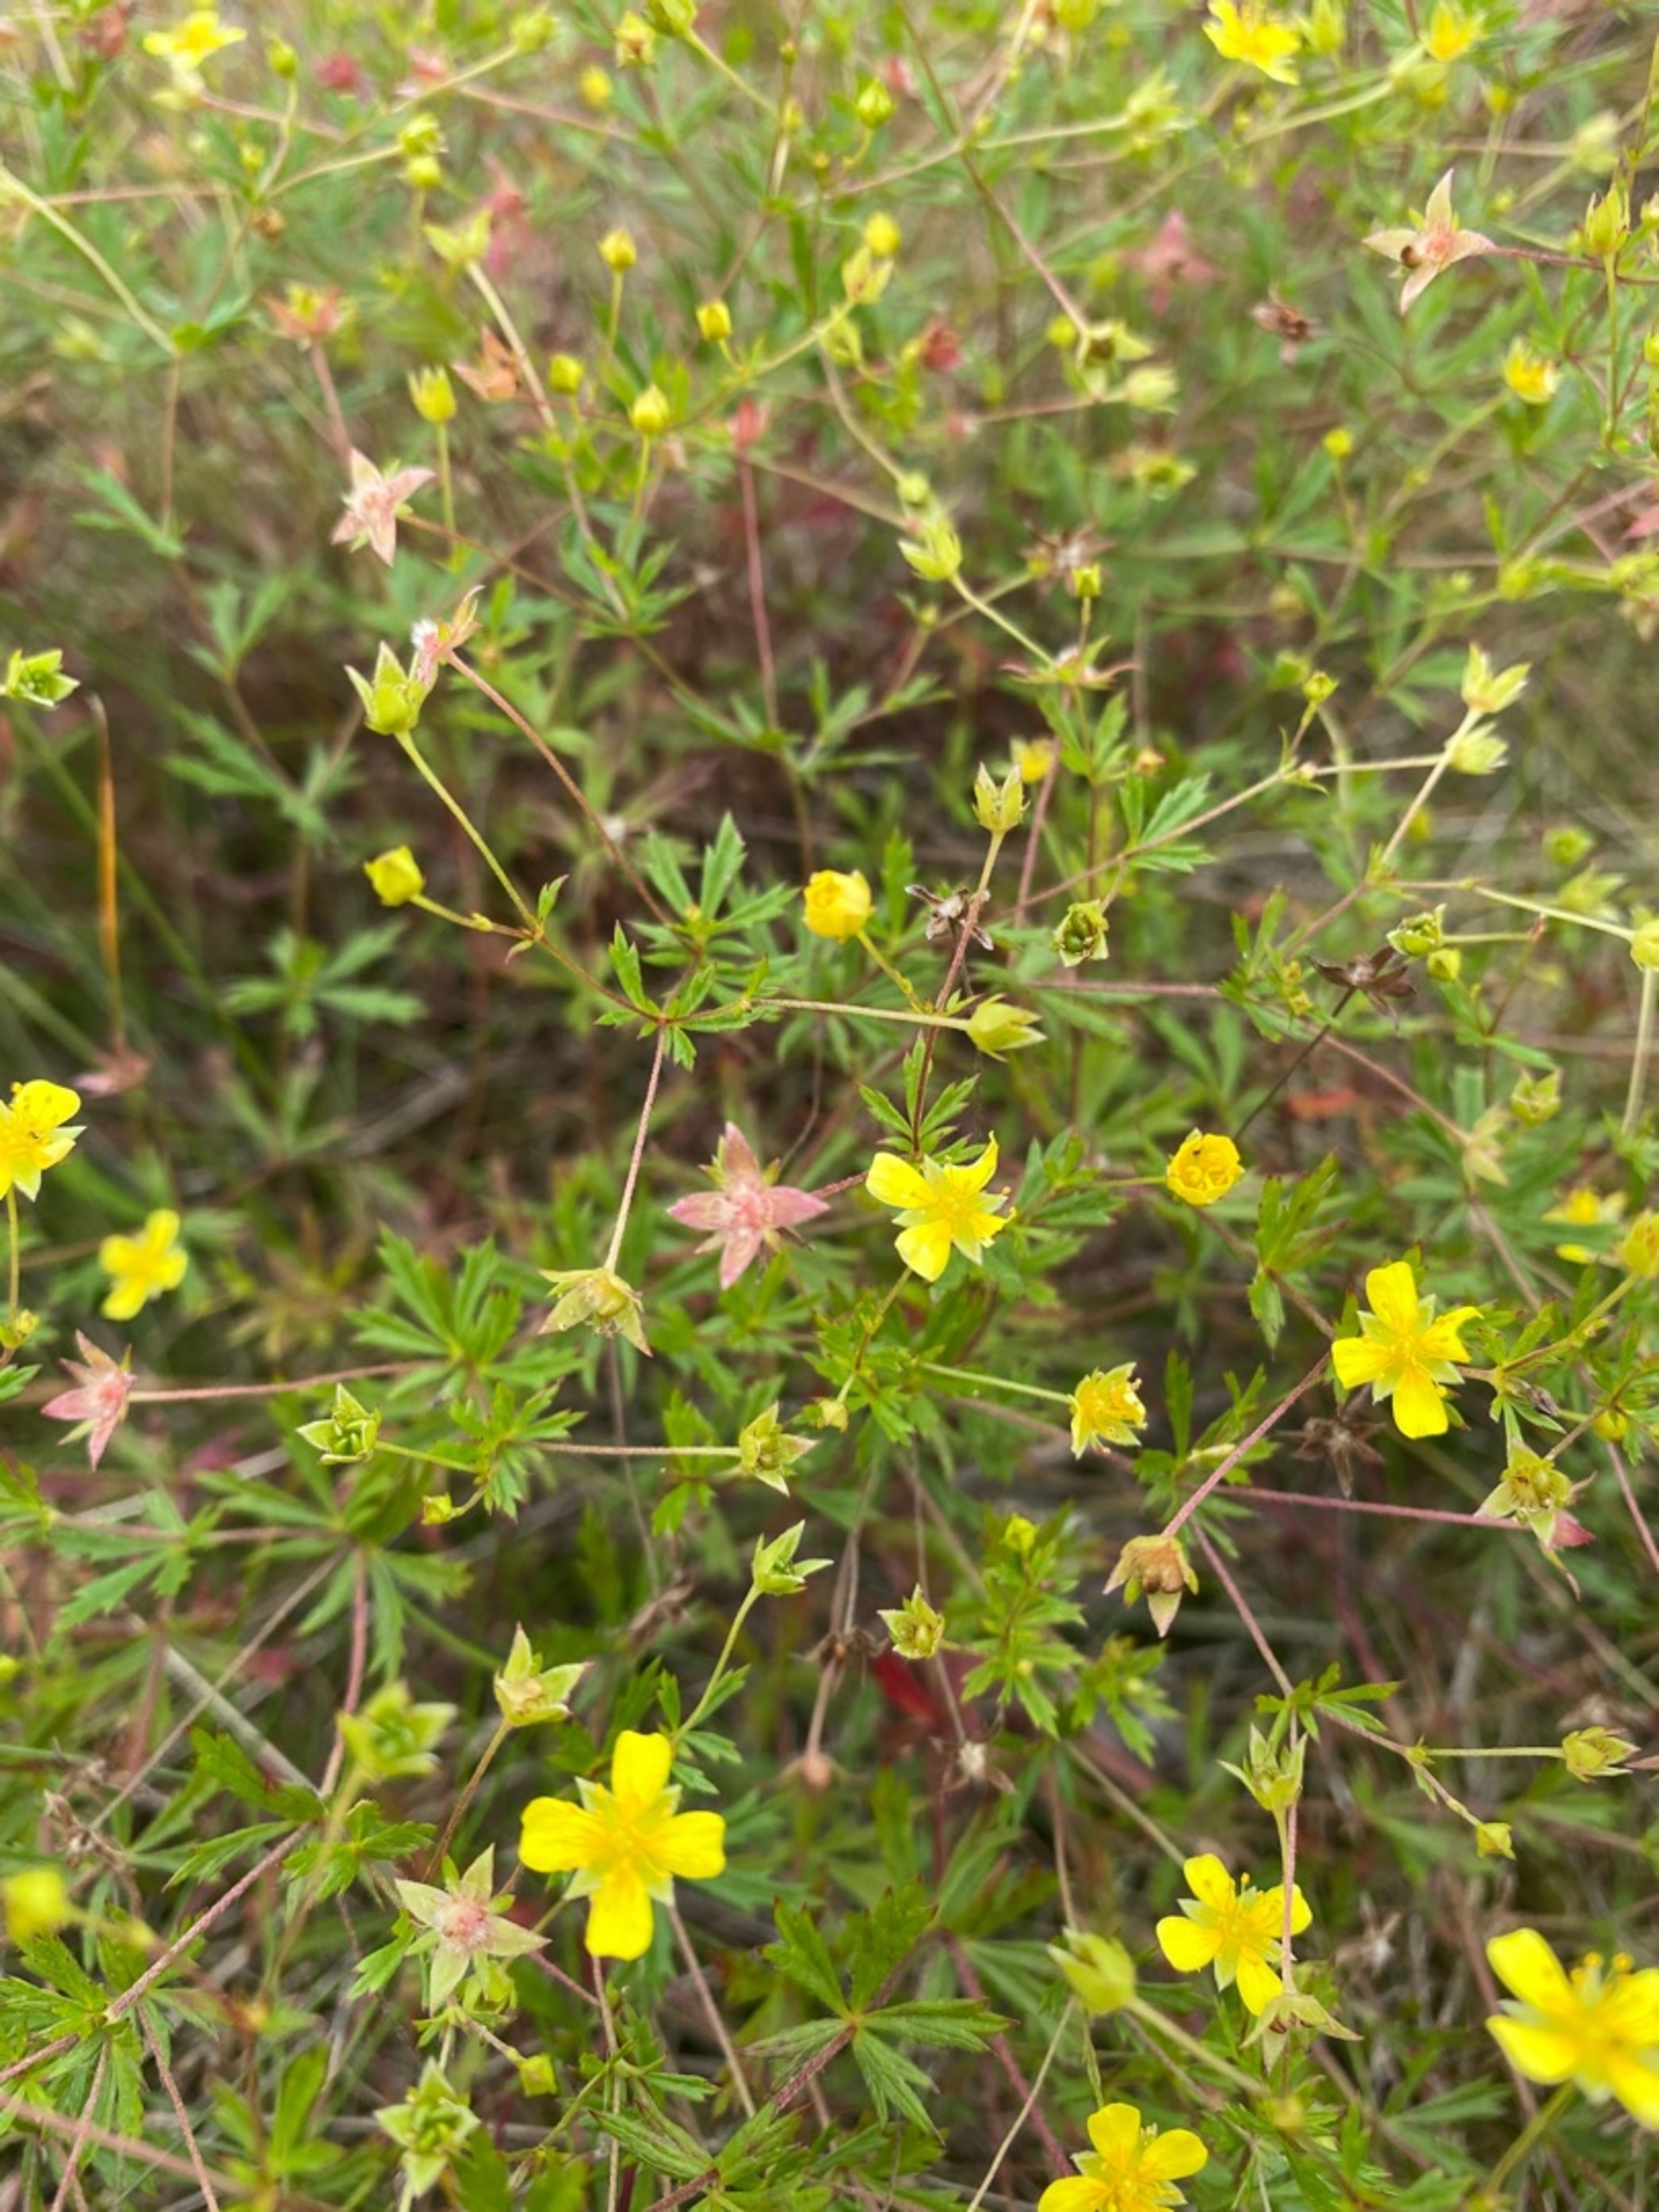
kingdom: Plantae
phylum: Tracheophyta
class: Magnoliopsida
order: Rosales
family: Rosaceae
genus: Potentilla
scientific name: Potentilla erecta
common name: Tormentil
